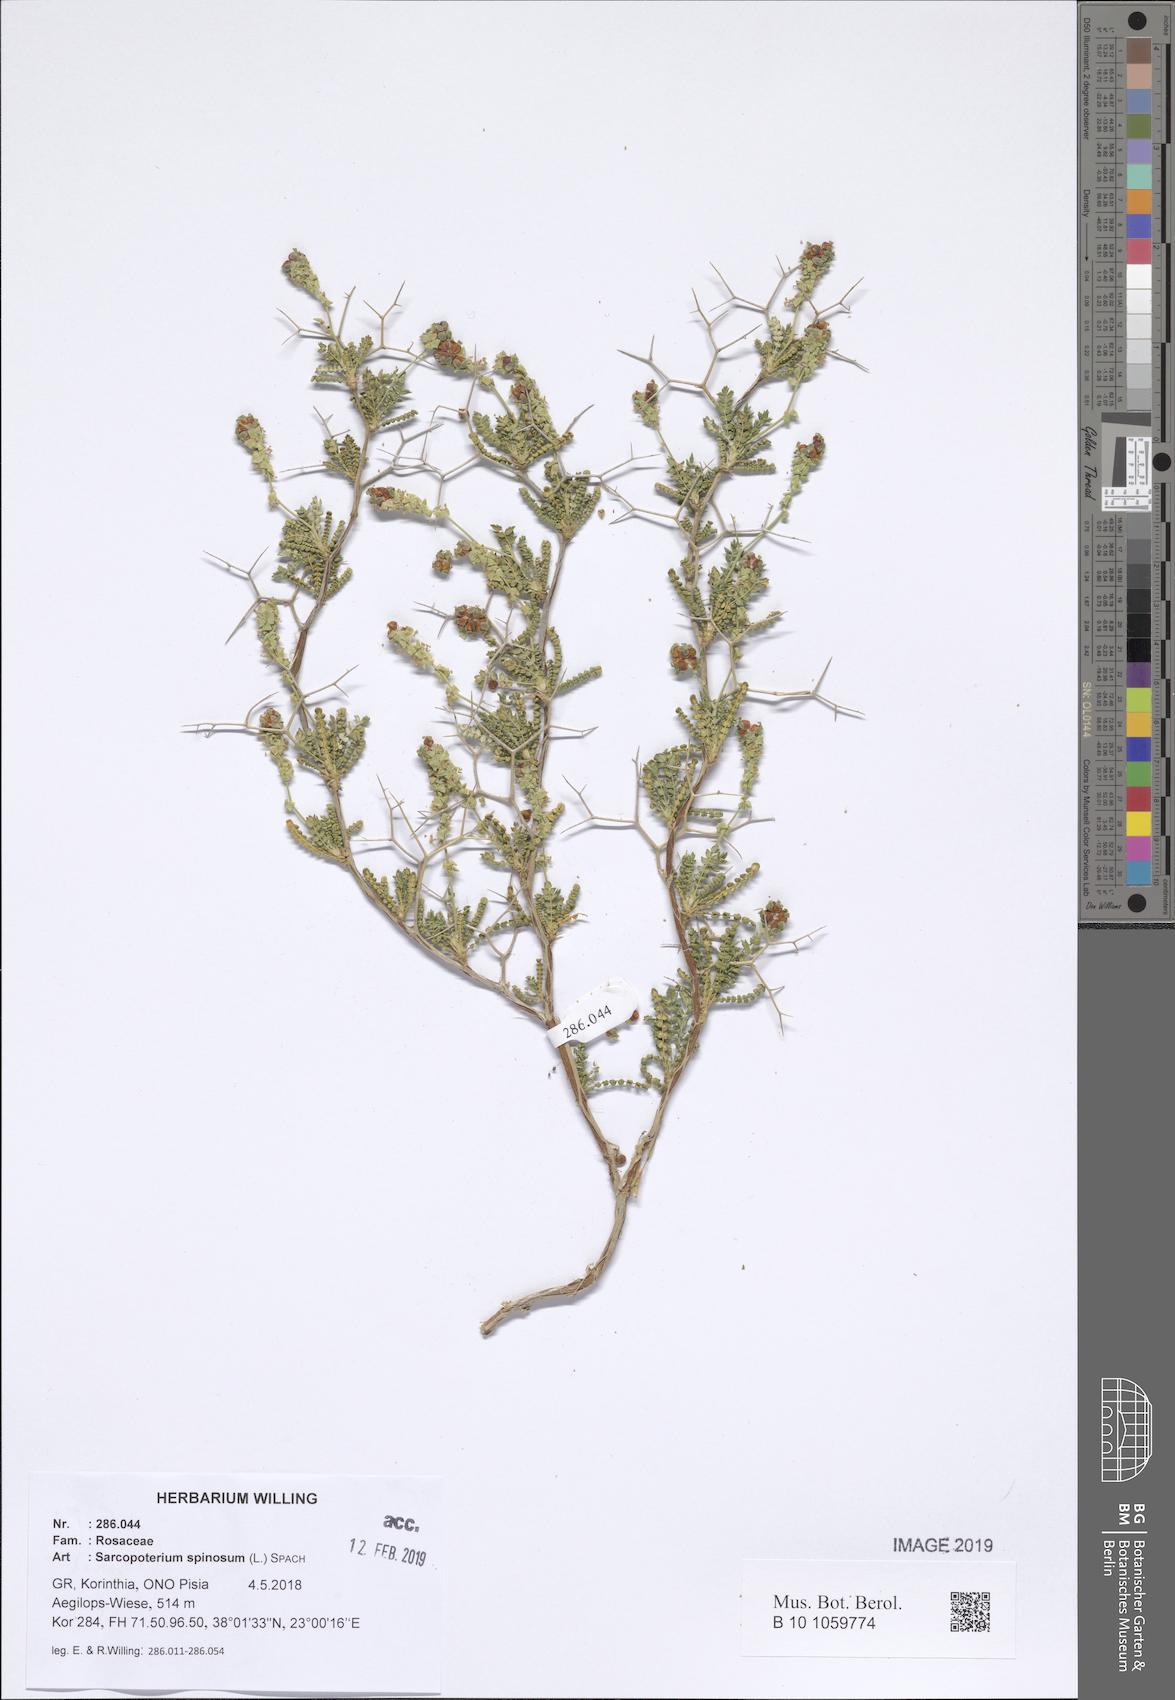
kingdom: Plantae
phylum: Tracheophyta
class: Magnoliopsida
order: Rosales
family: Rosaceae
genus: Sarcopoterium
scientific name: Sarcopoterium spinosum
